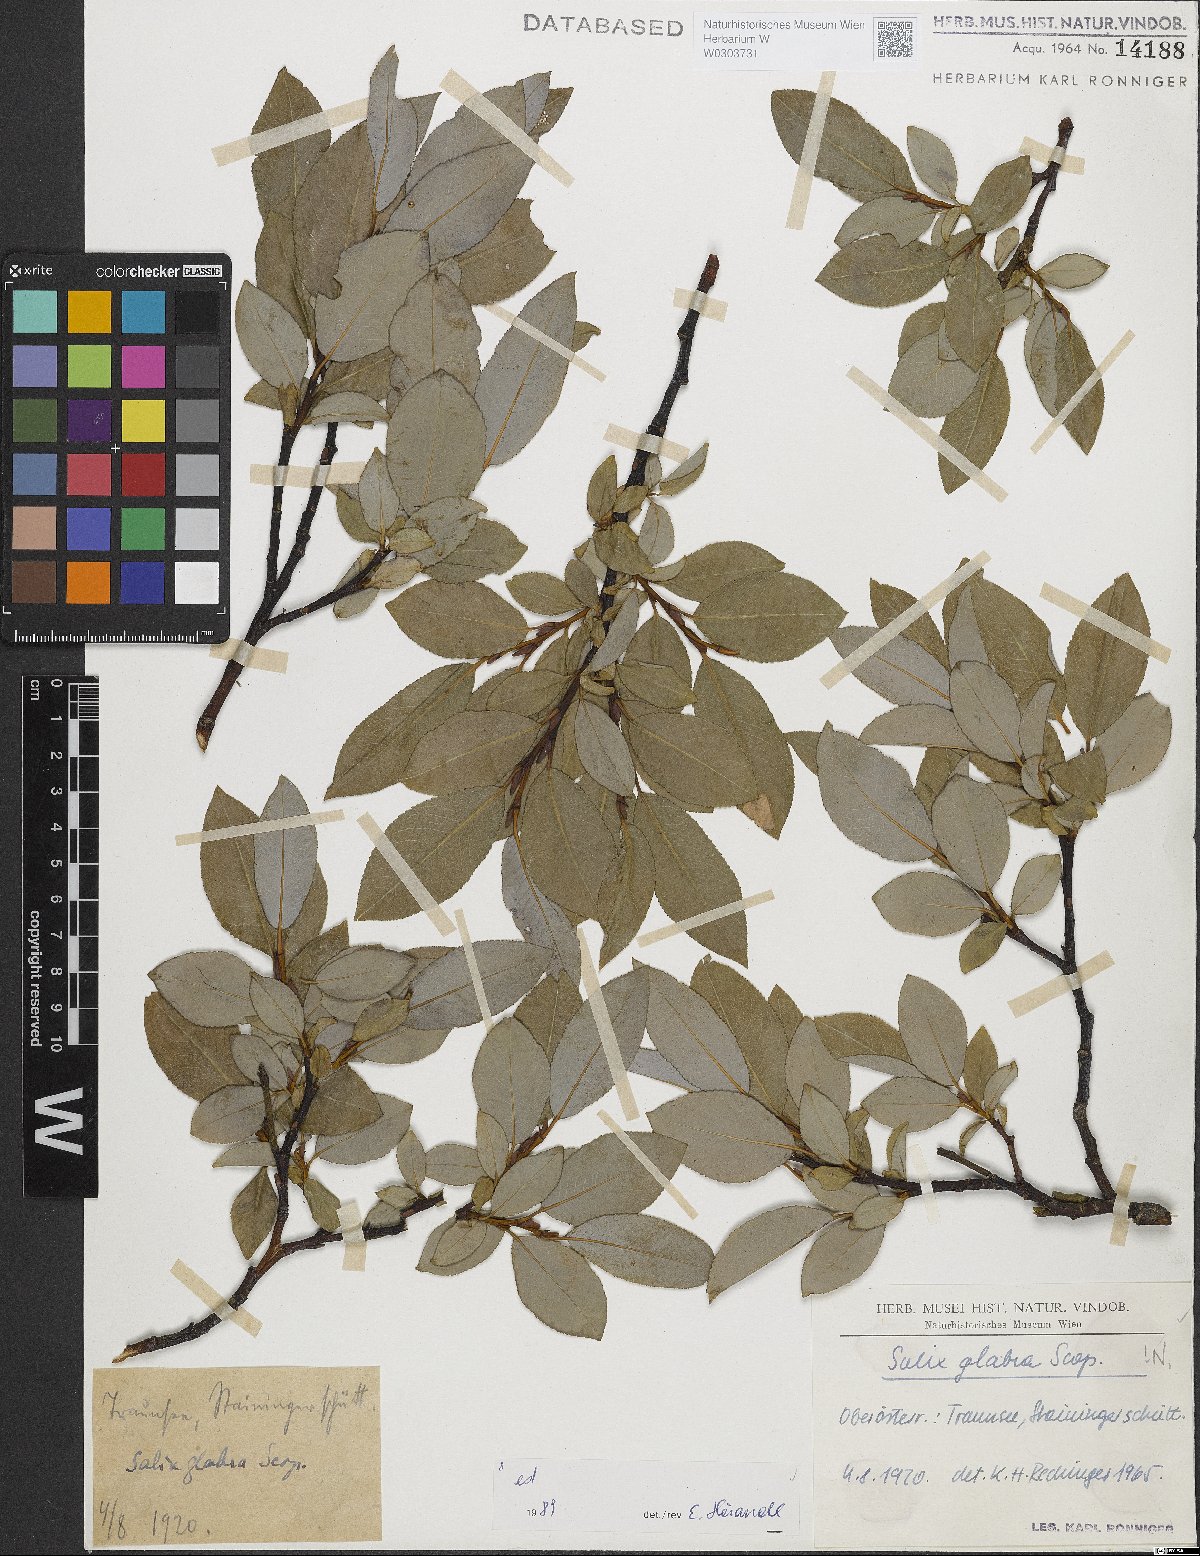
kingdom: Plantae
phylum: Tracheophyta
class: Magnoliopsida
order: Malpighiales
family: Salicaceae
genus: Salix
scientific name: Salix glabra
